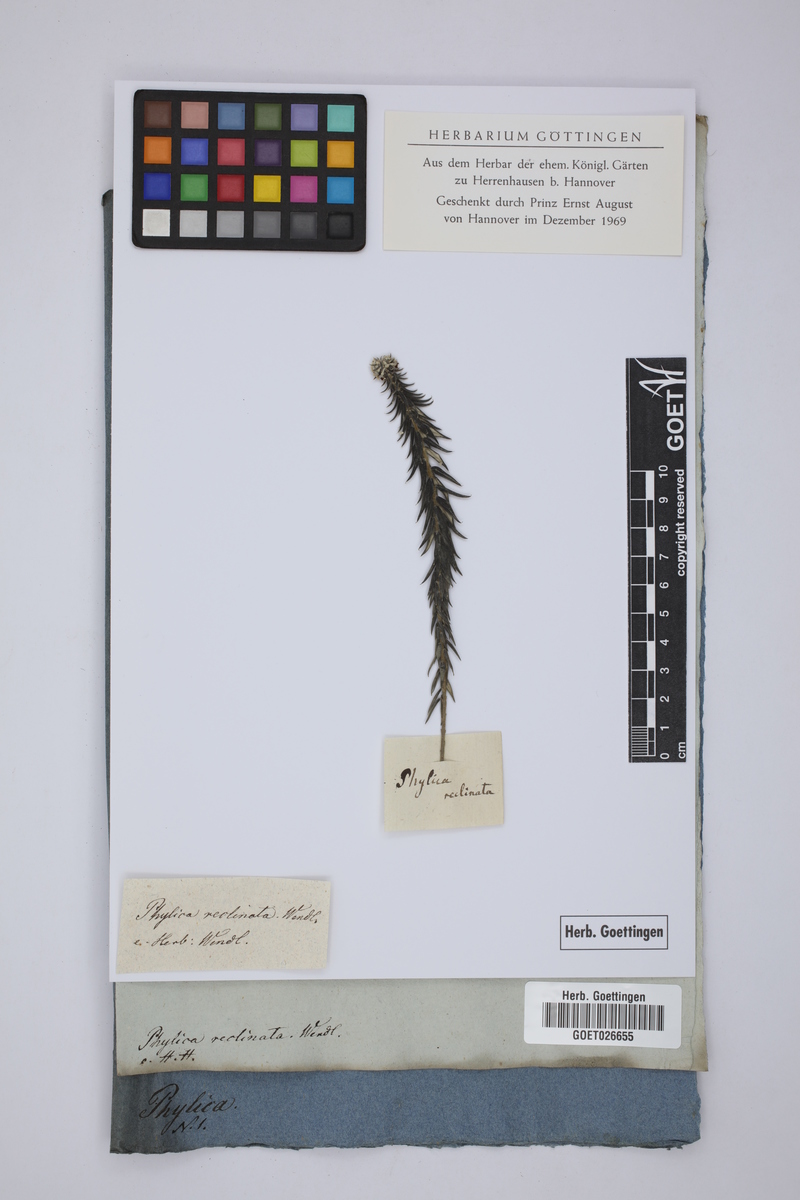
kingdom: Plantae
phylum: Tracheophyta
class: Magnoliopsida
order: Rosales
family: Rhamnaceae
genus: Phylica
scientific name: Phylica pinea
